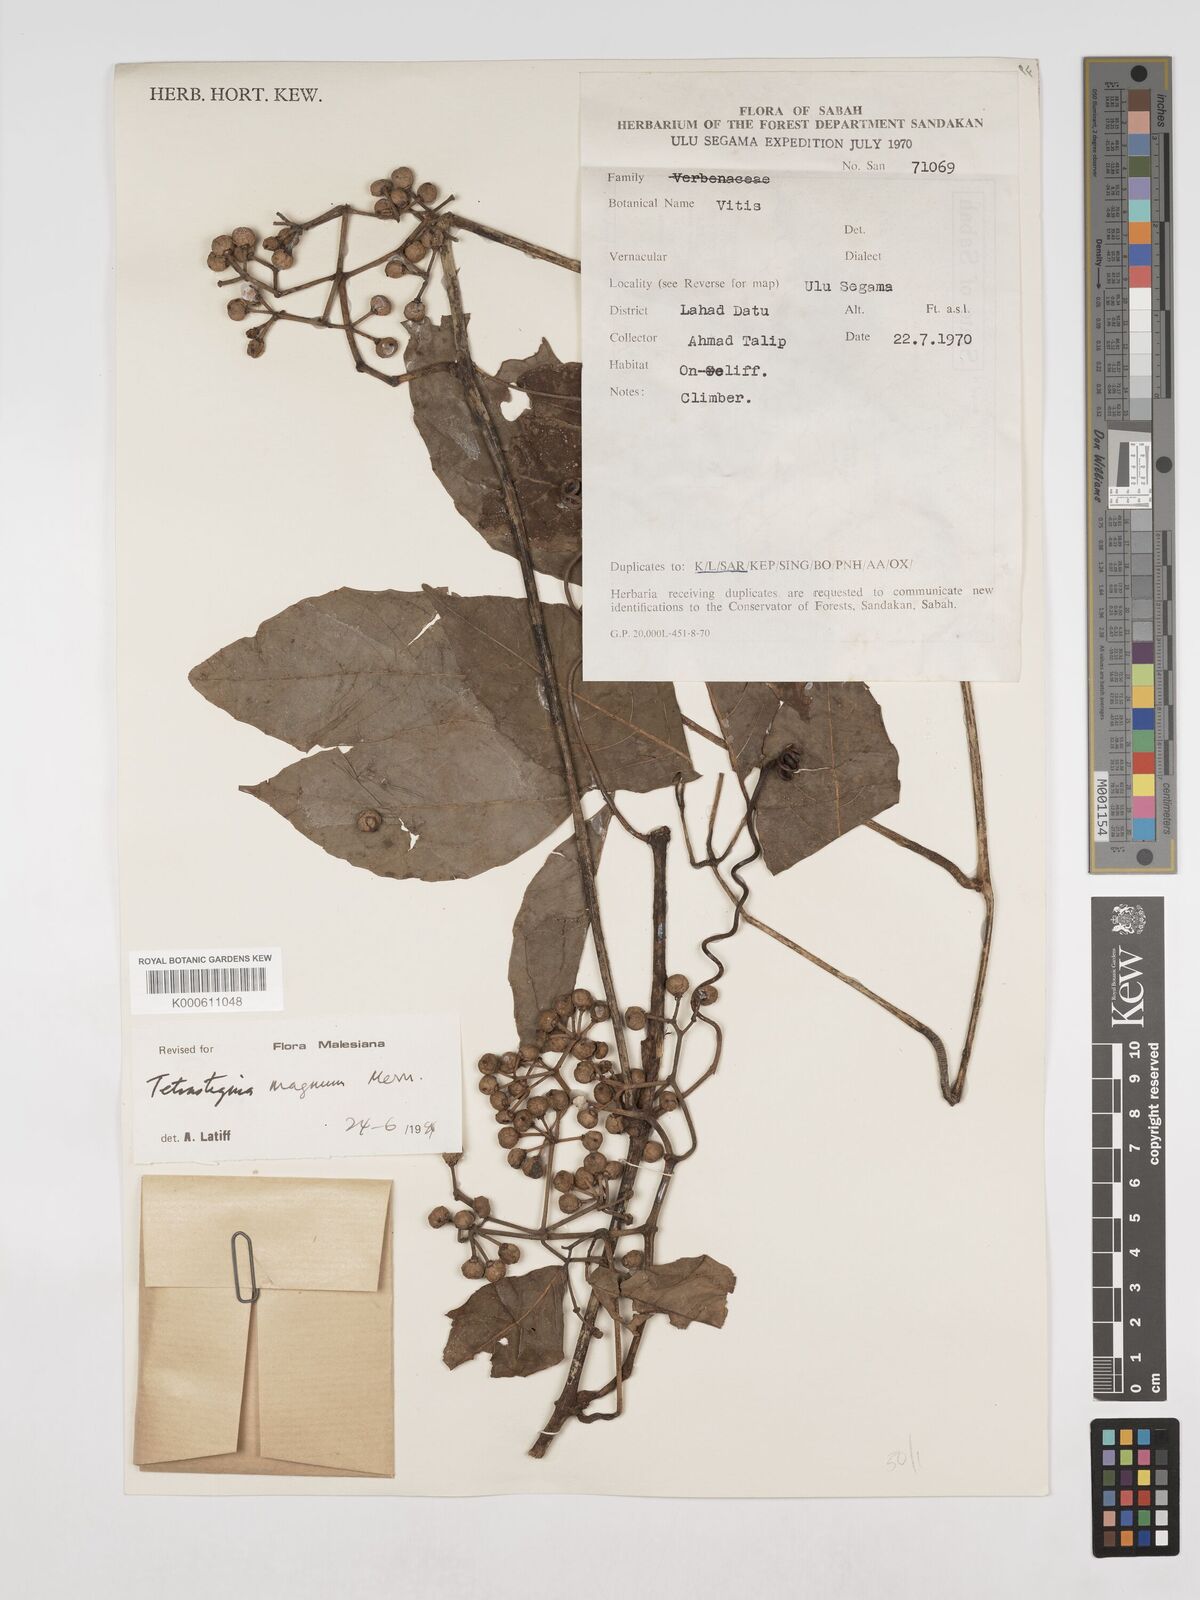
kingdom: Plantae
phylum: Tracheophyta
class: Magnoliopsida
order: Vitales
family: Vitaceae
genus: Tetrastigma
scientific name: Tetrastigma magnum
